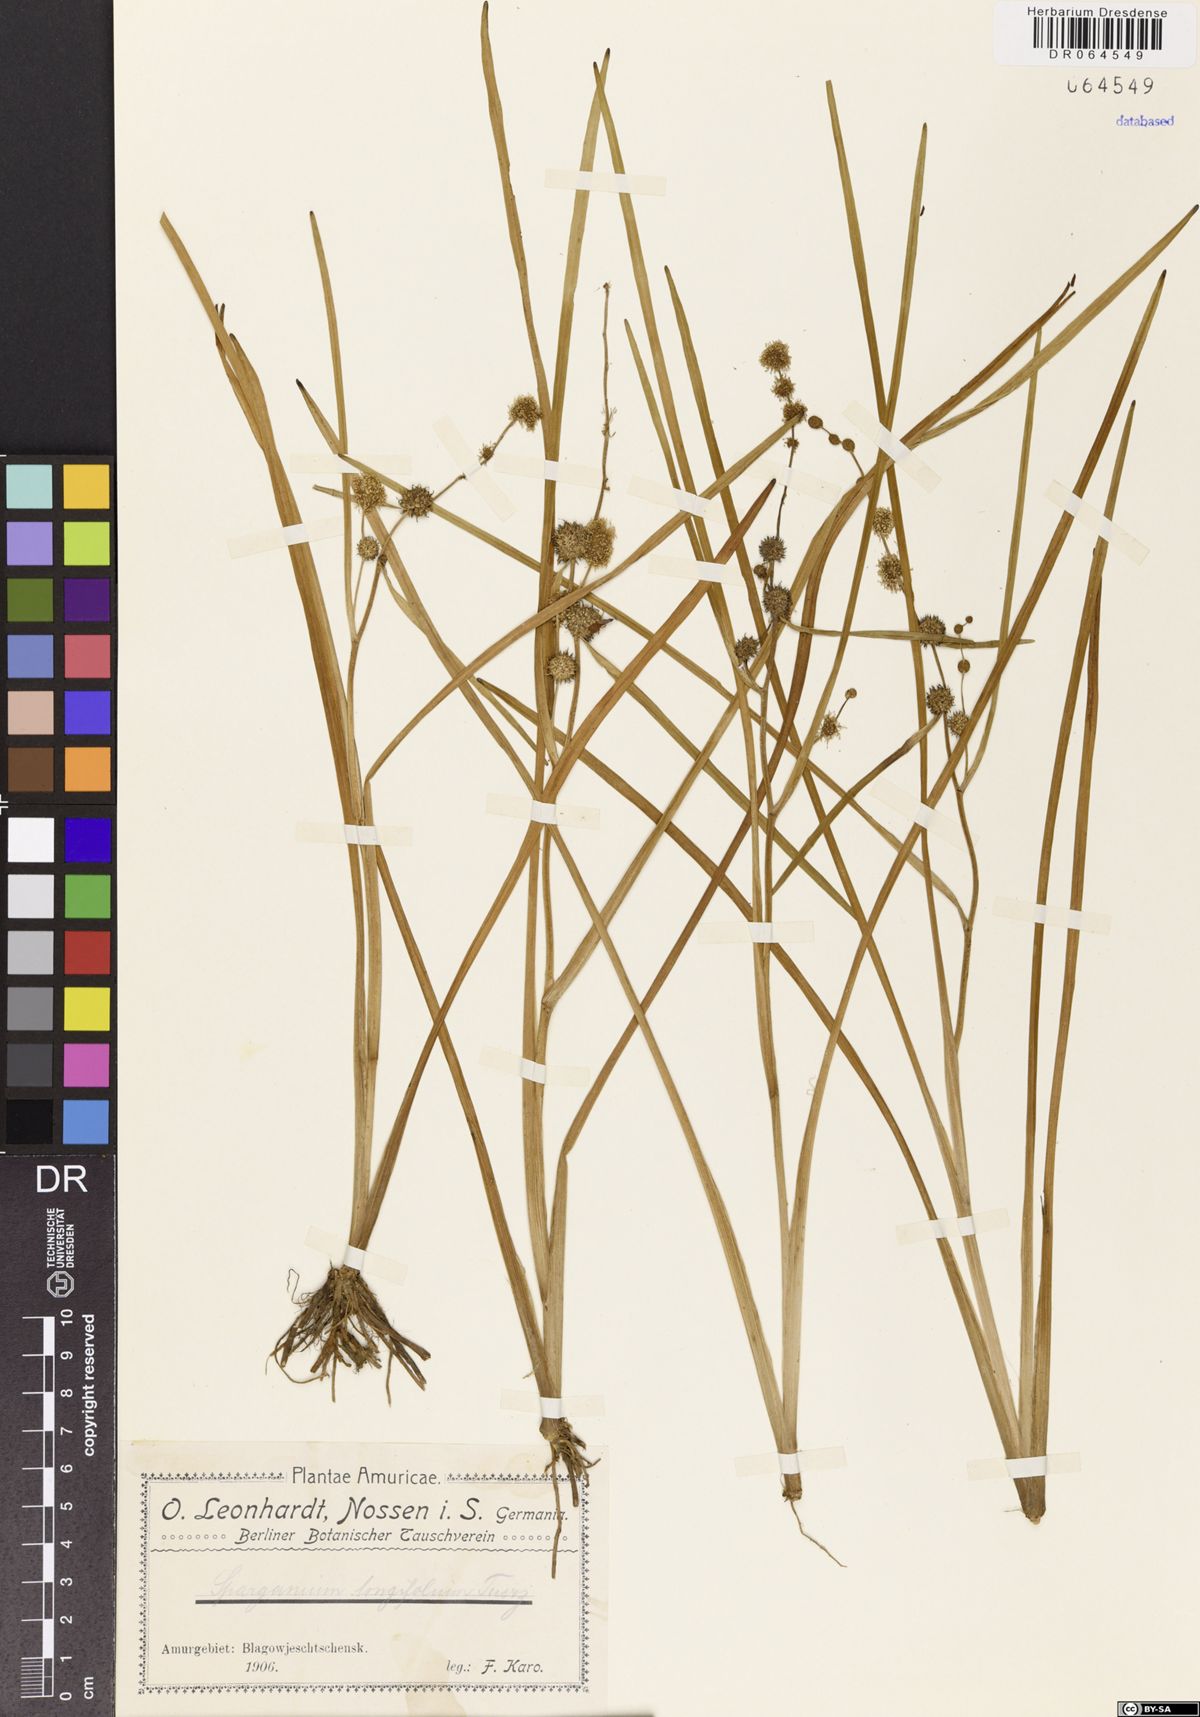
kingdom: Plantae
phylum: Tracheophyta
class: Liliopsida
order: Poales
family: Typhaceae
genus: Sparganium
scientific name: Sparganium longifolium
